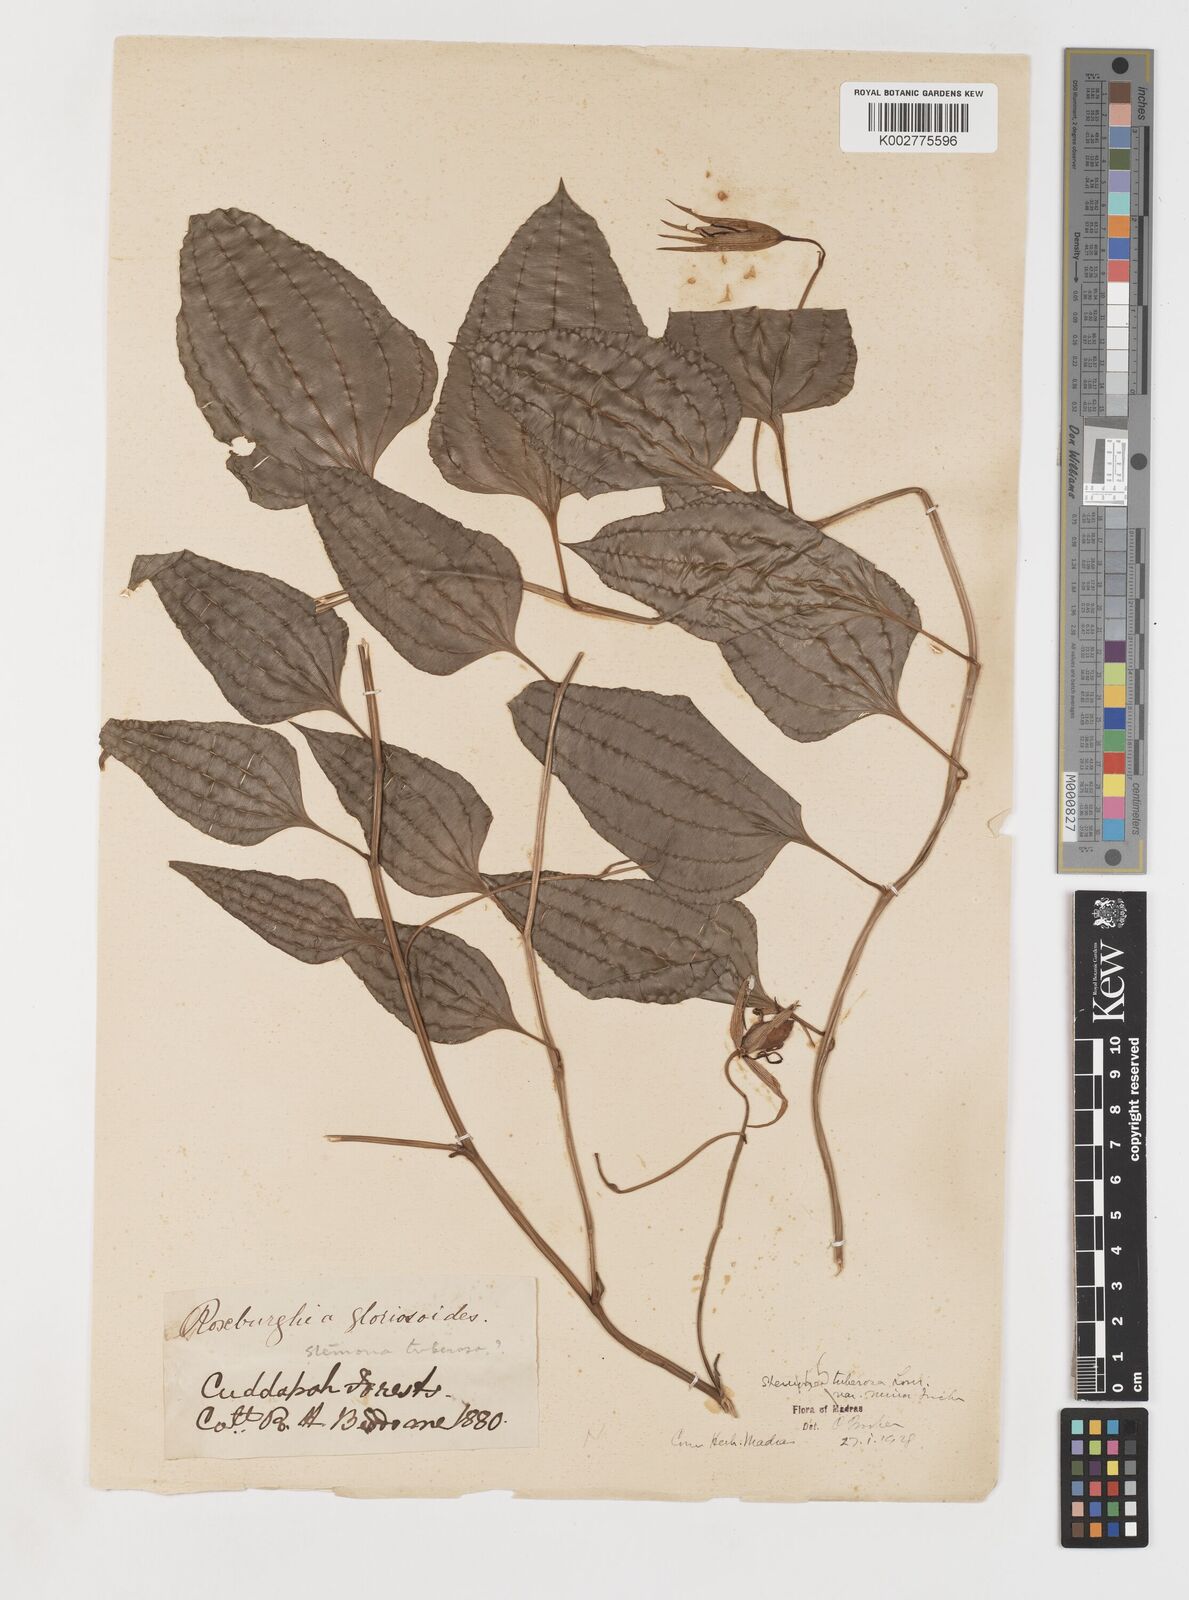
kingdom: Plantae
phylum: Tracheophyta
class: Liliopsida
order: Pandanales
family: Stemonaceae
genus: Stemona
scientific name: Stemona tuberosa
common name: Stemona
